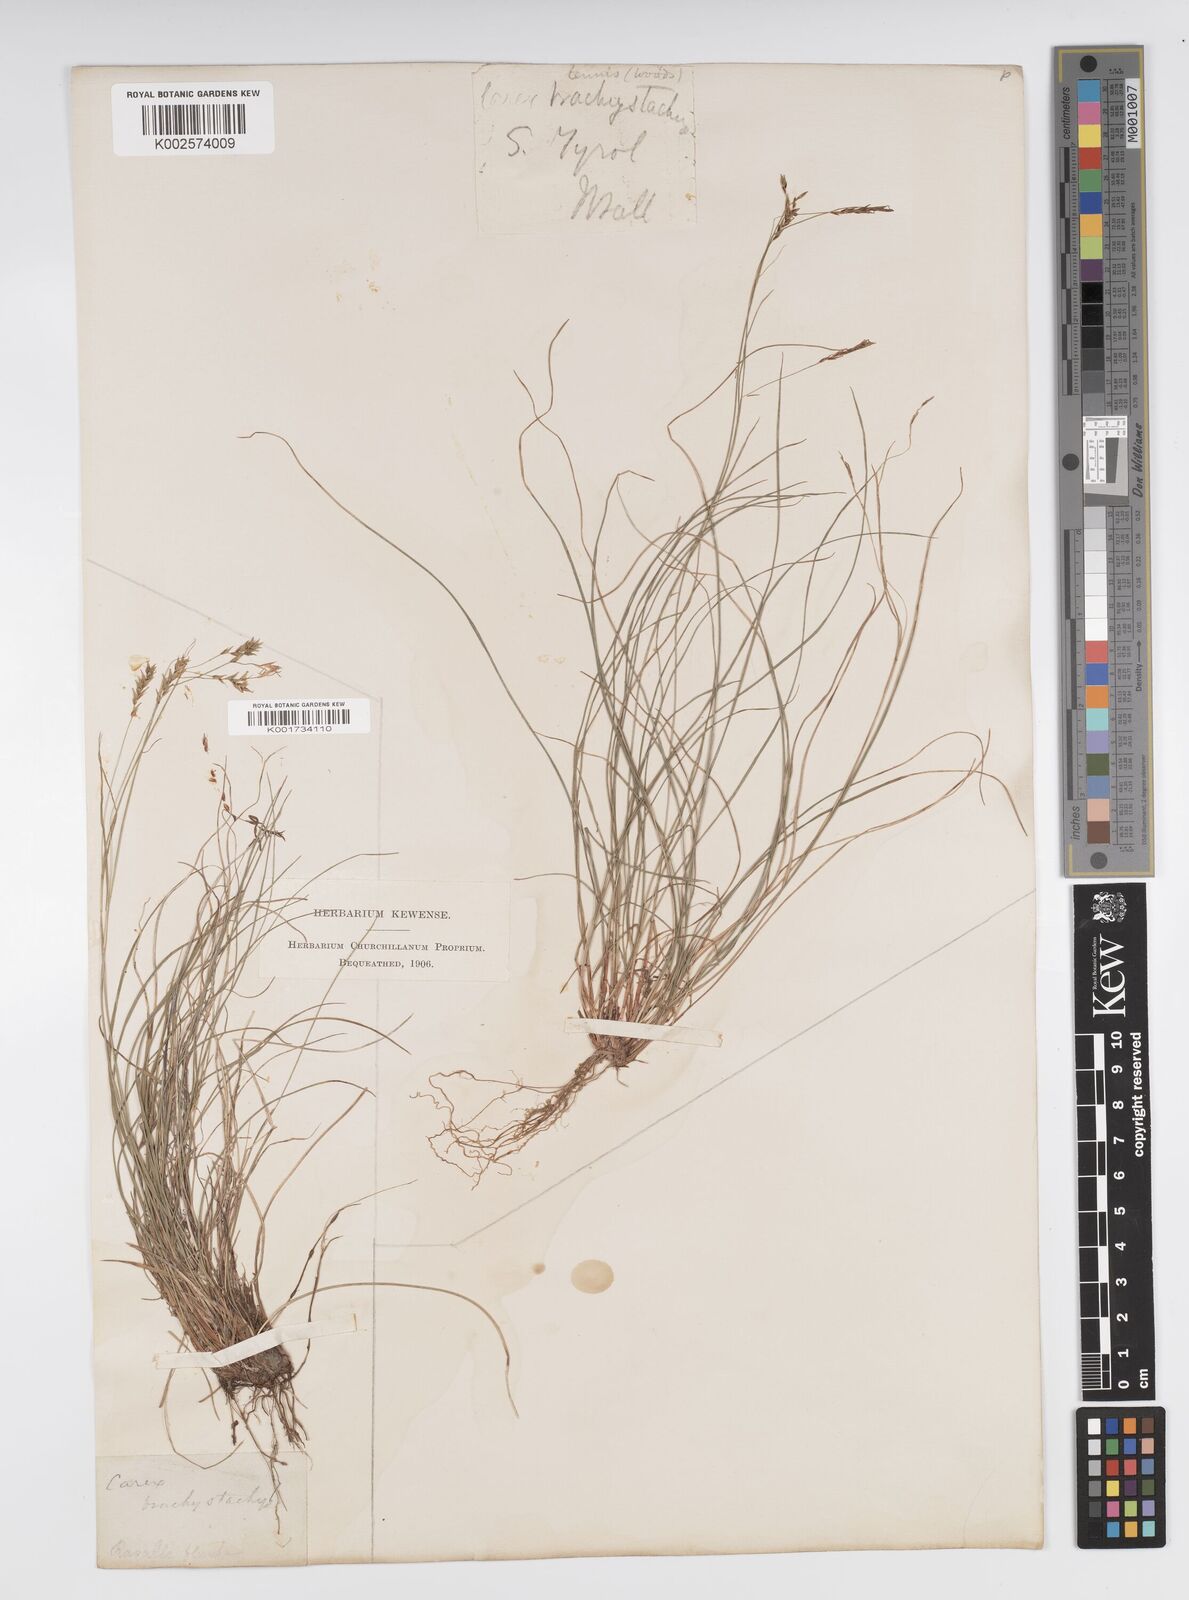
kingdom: Plantae
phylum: Tracheophyta
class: Liliopsida
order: Poales
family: Cyperaceae
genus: Carex
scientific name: Carex brachystachys
